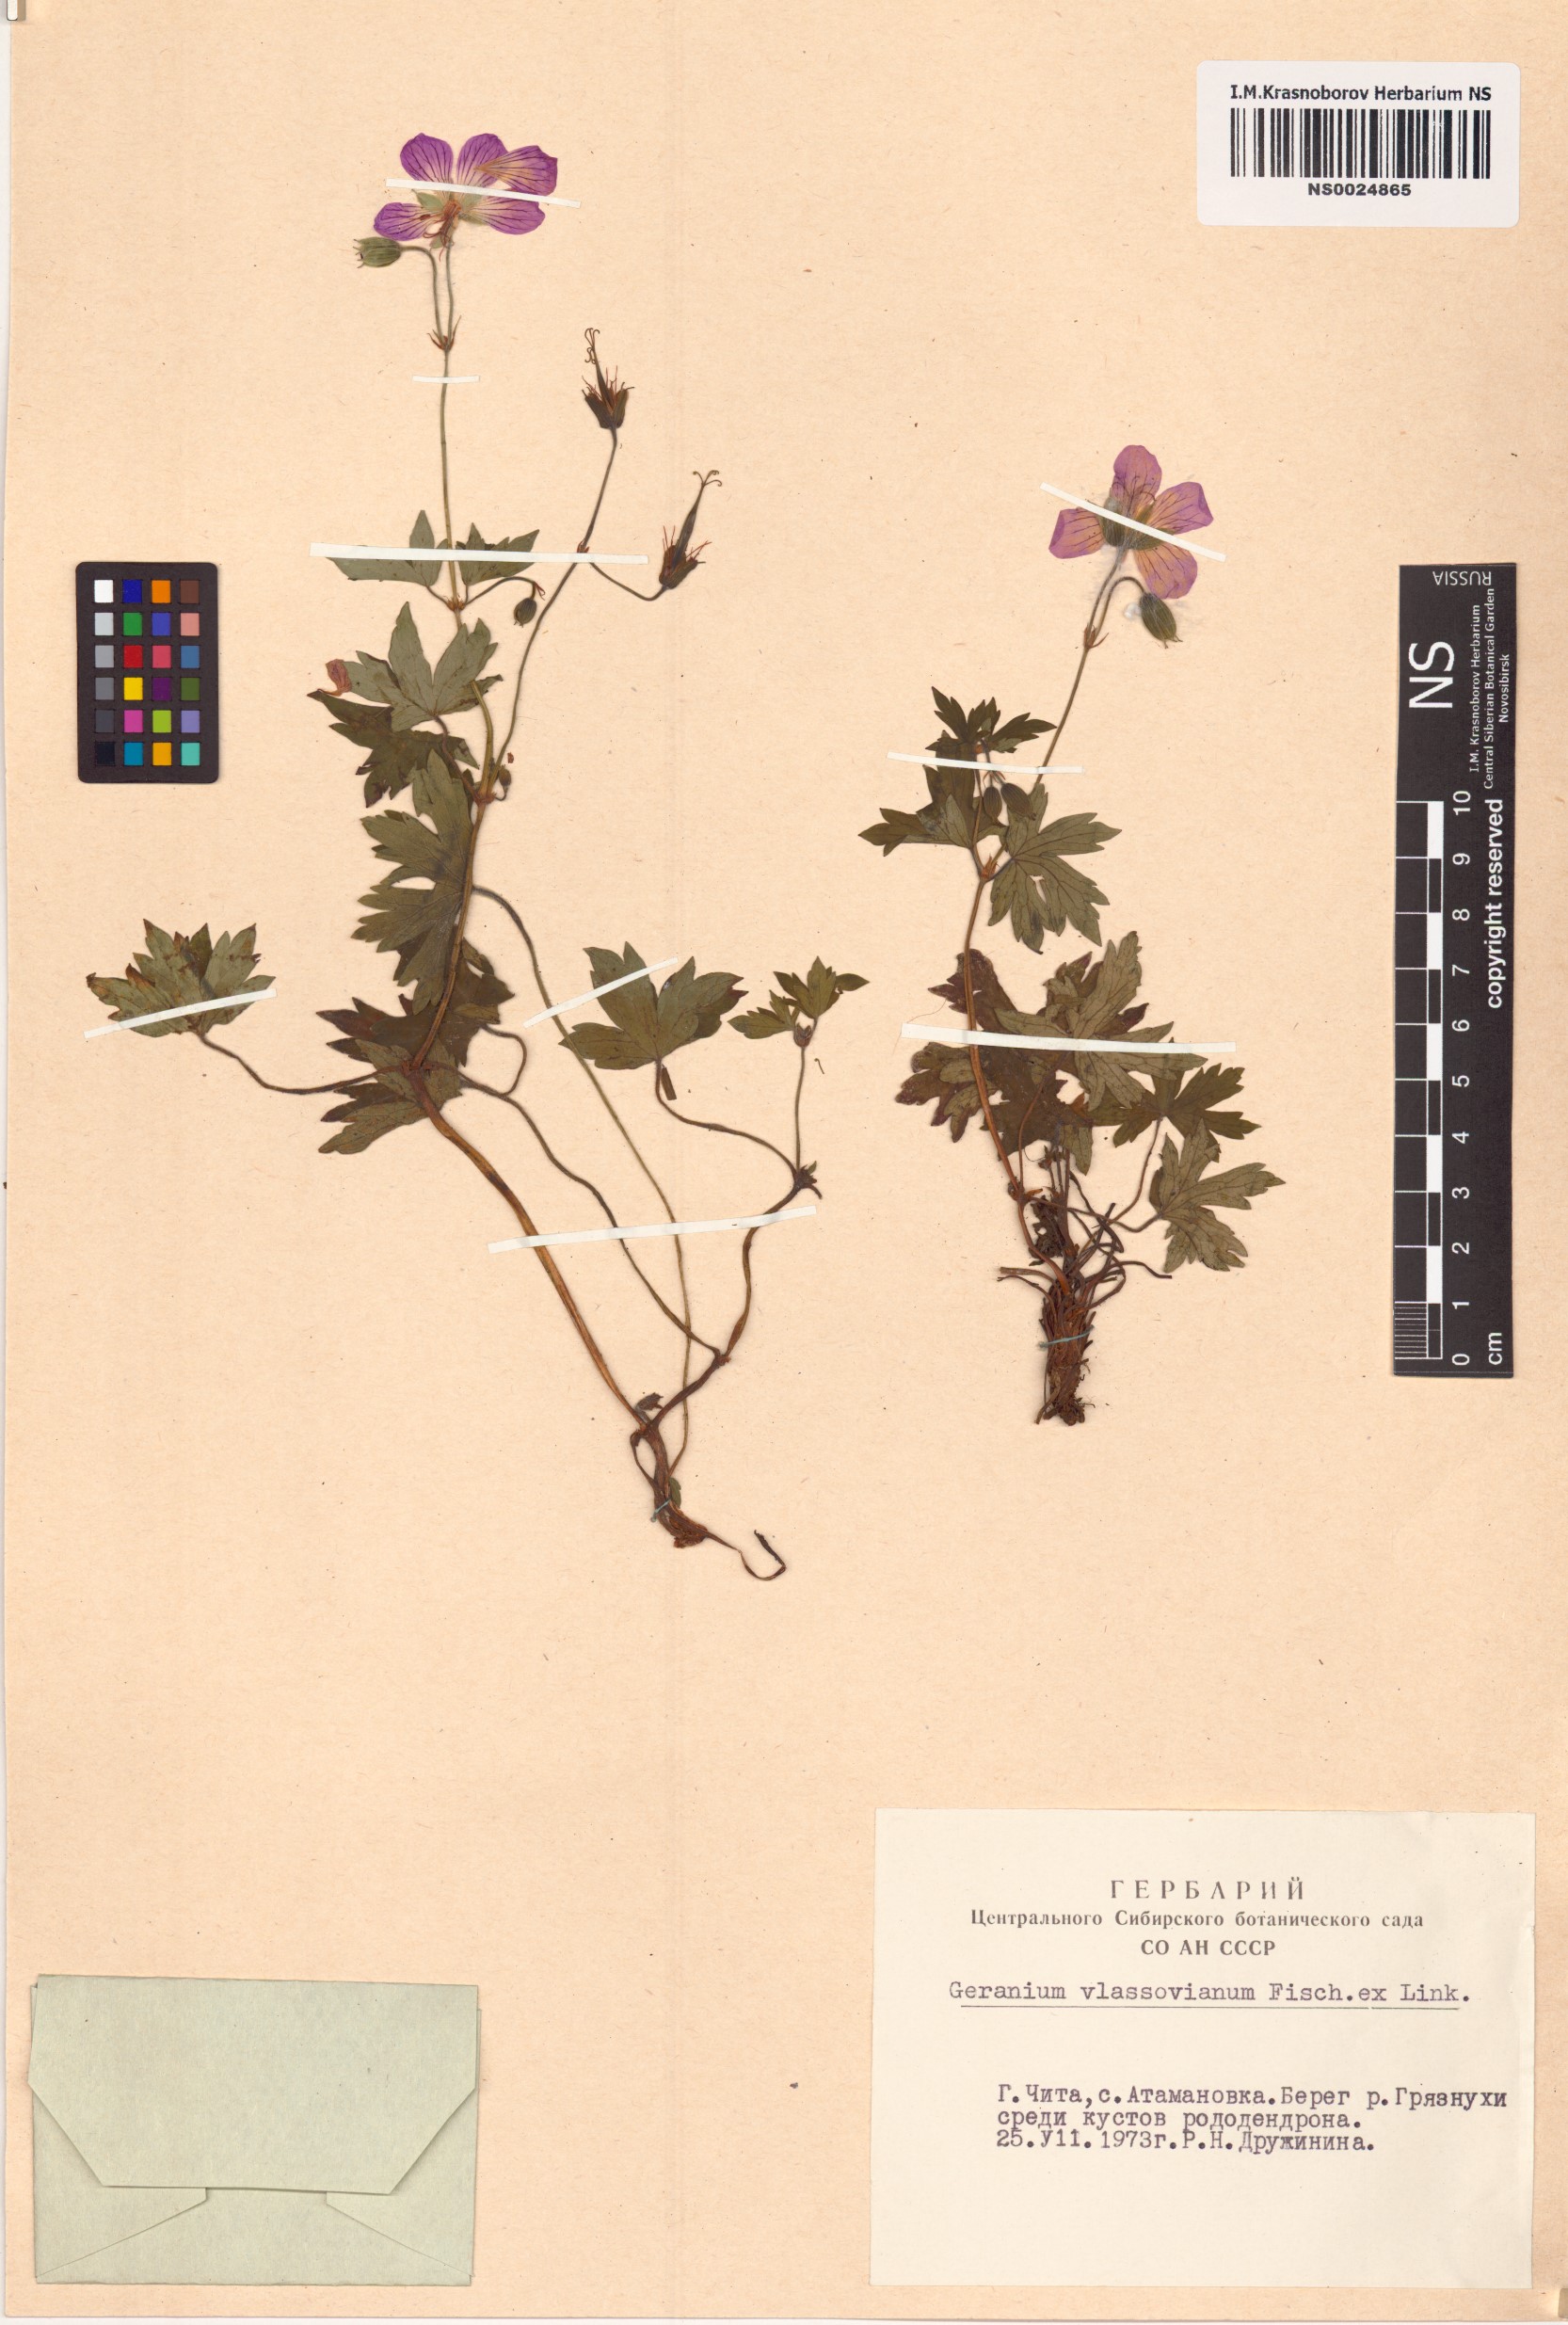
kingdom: Plantae
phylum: Tracheophyta
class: Magnoliopsida
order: Geraniales
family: Geraniaceae
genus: Geranium
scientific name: Geranium wlassovianum
